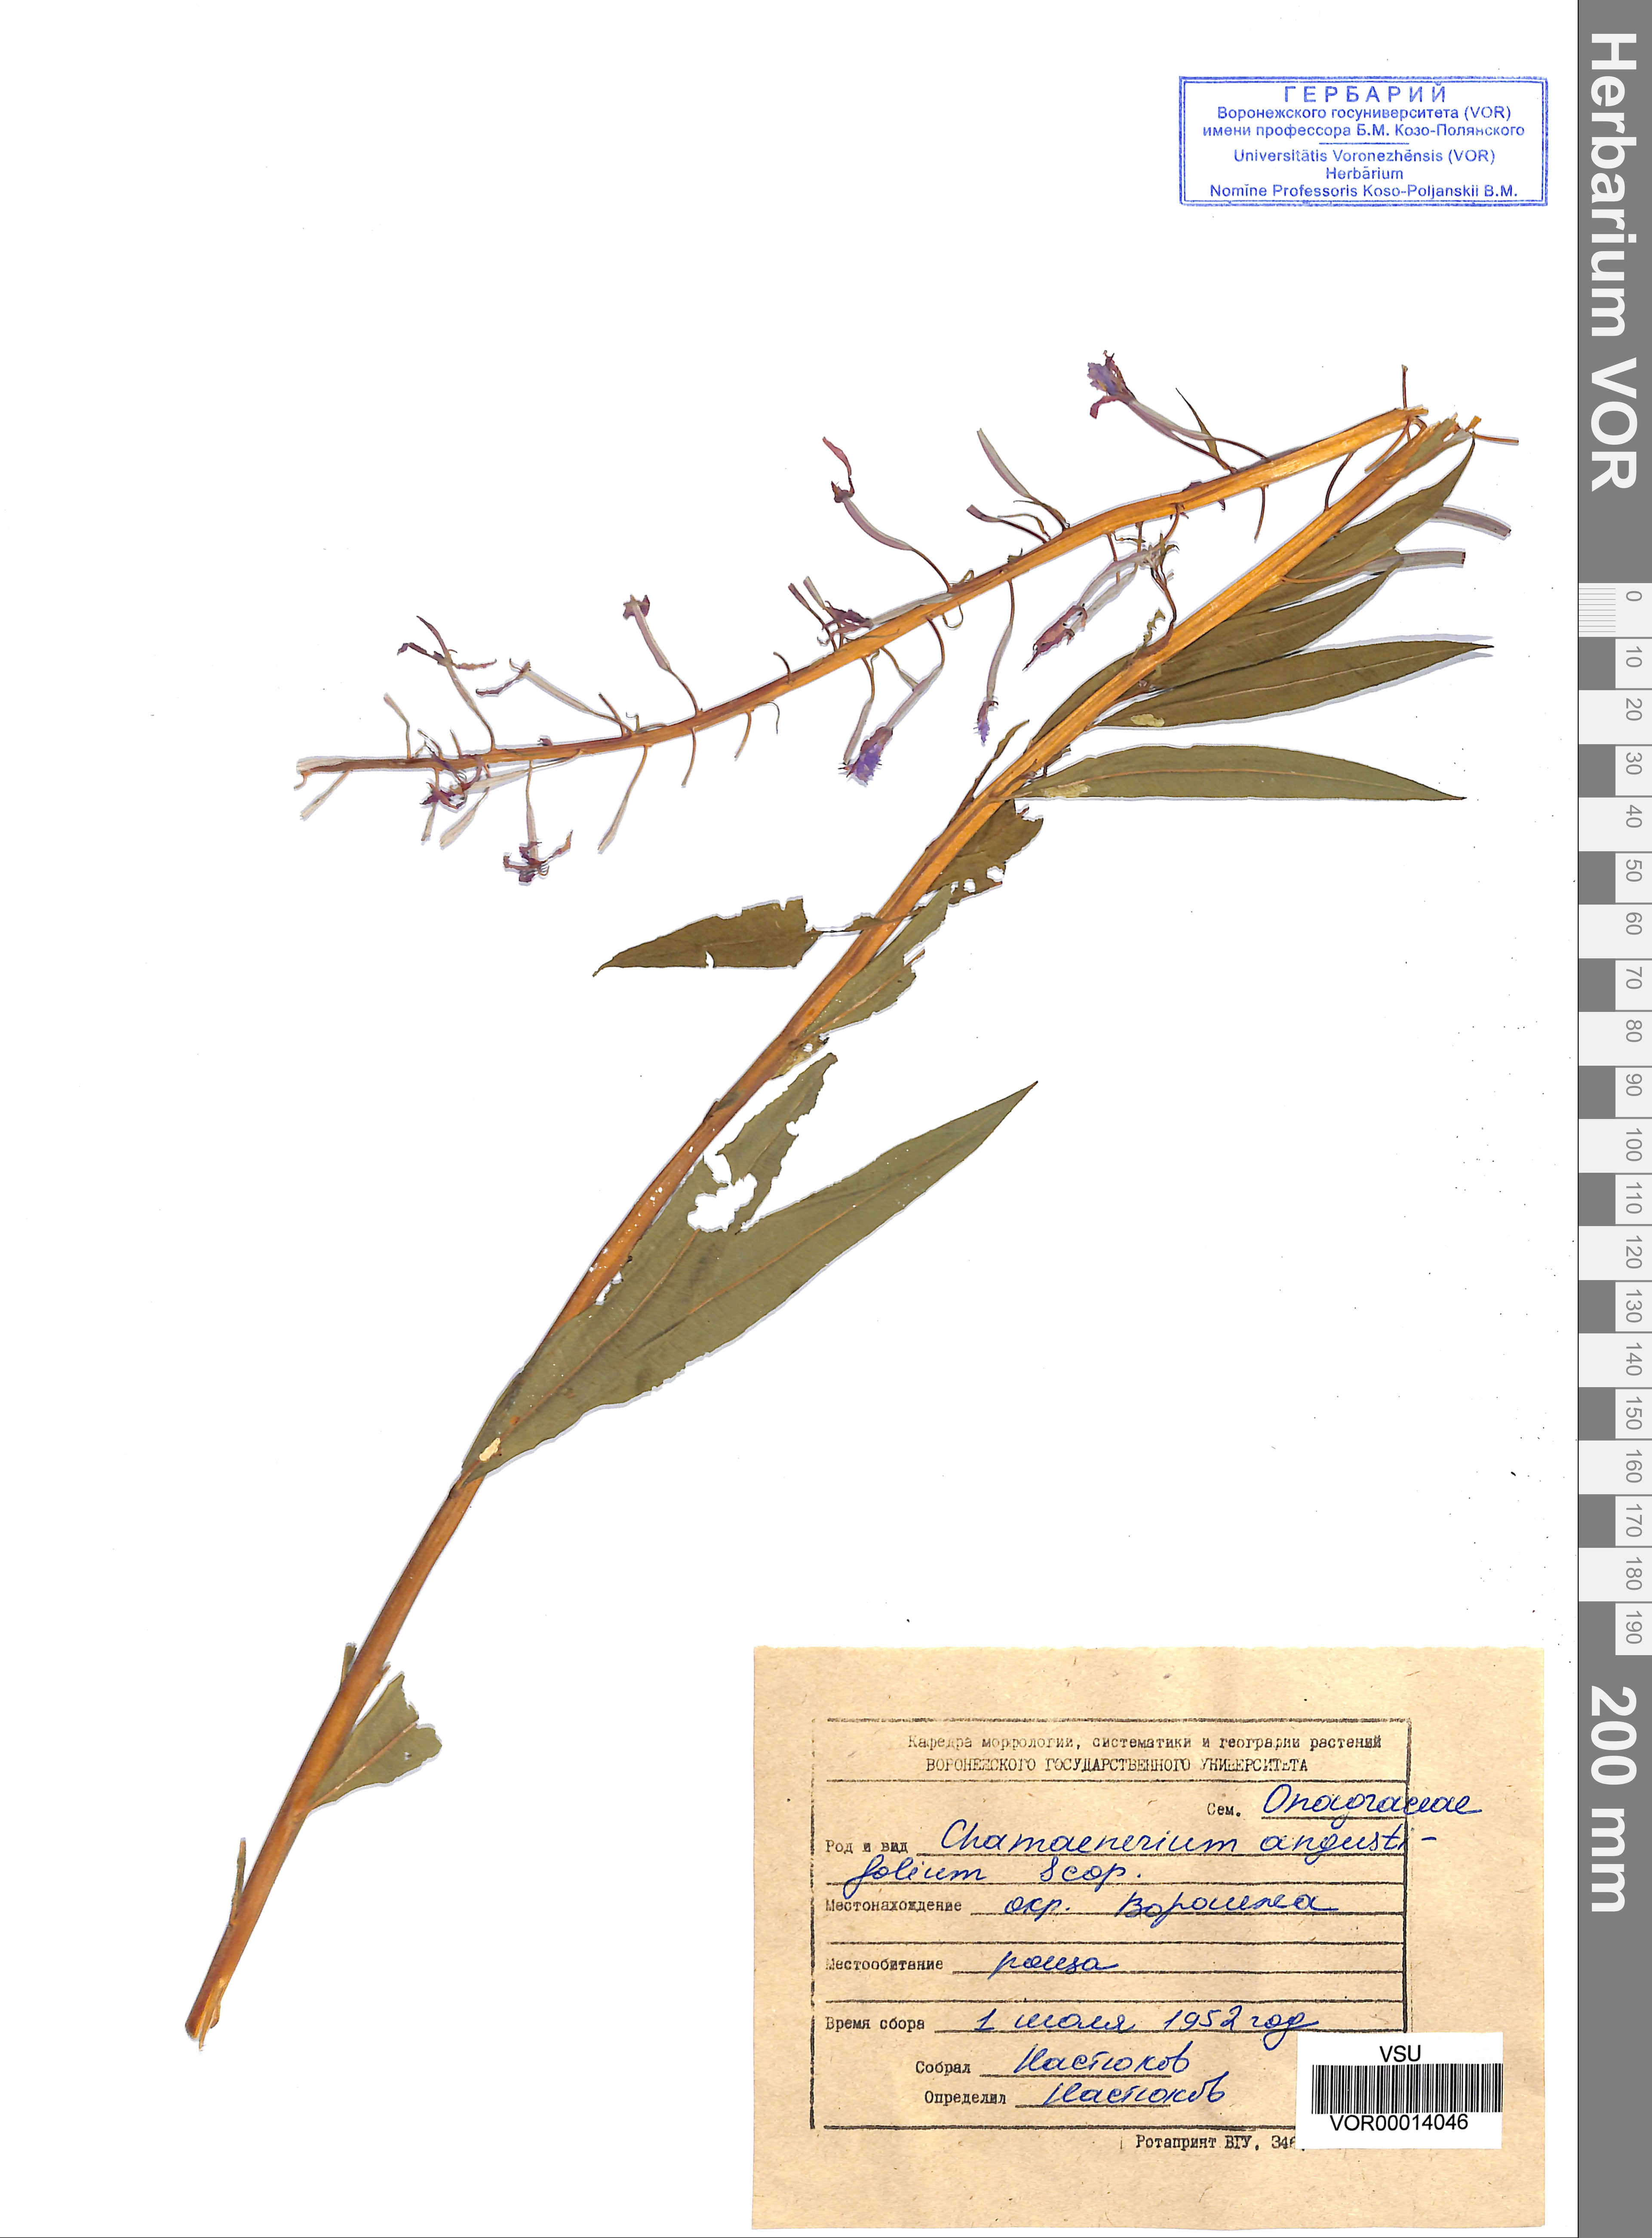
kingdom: Plantae
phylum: Tracheophyta
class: Magnoliopsida
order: Myrtales
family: Onagraceae
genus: Chamaenerion
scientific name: Chamaenerion angustifolium
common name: Fireweed
